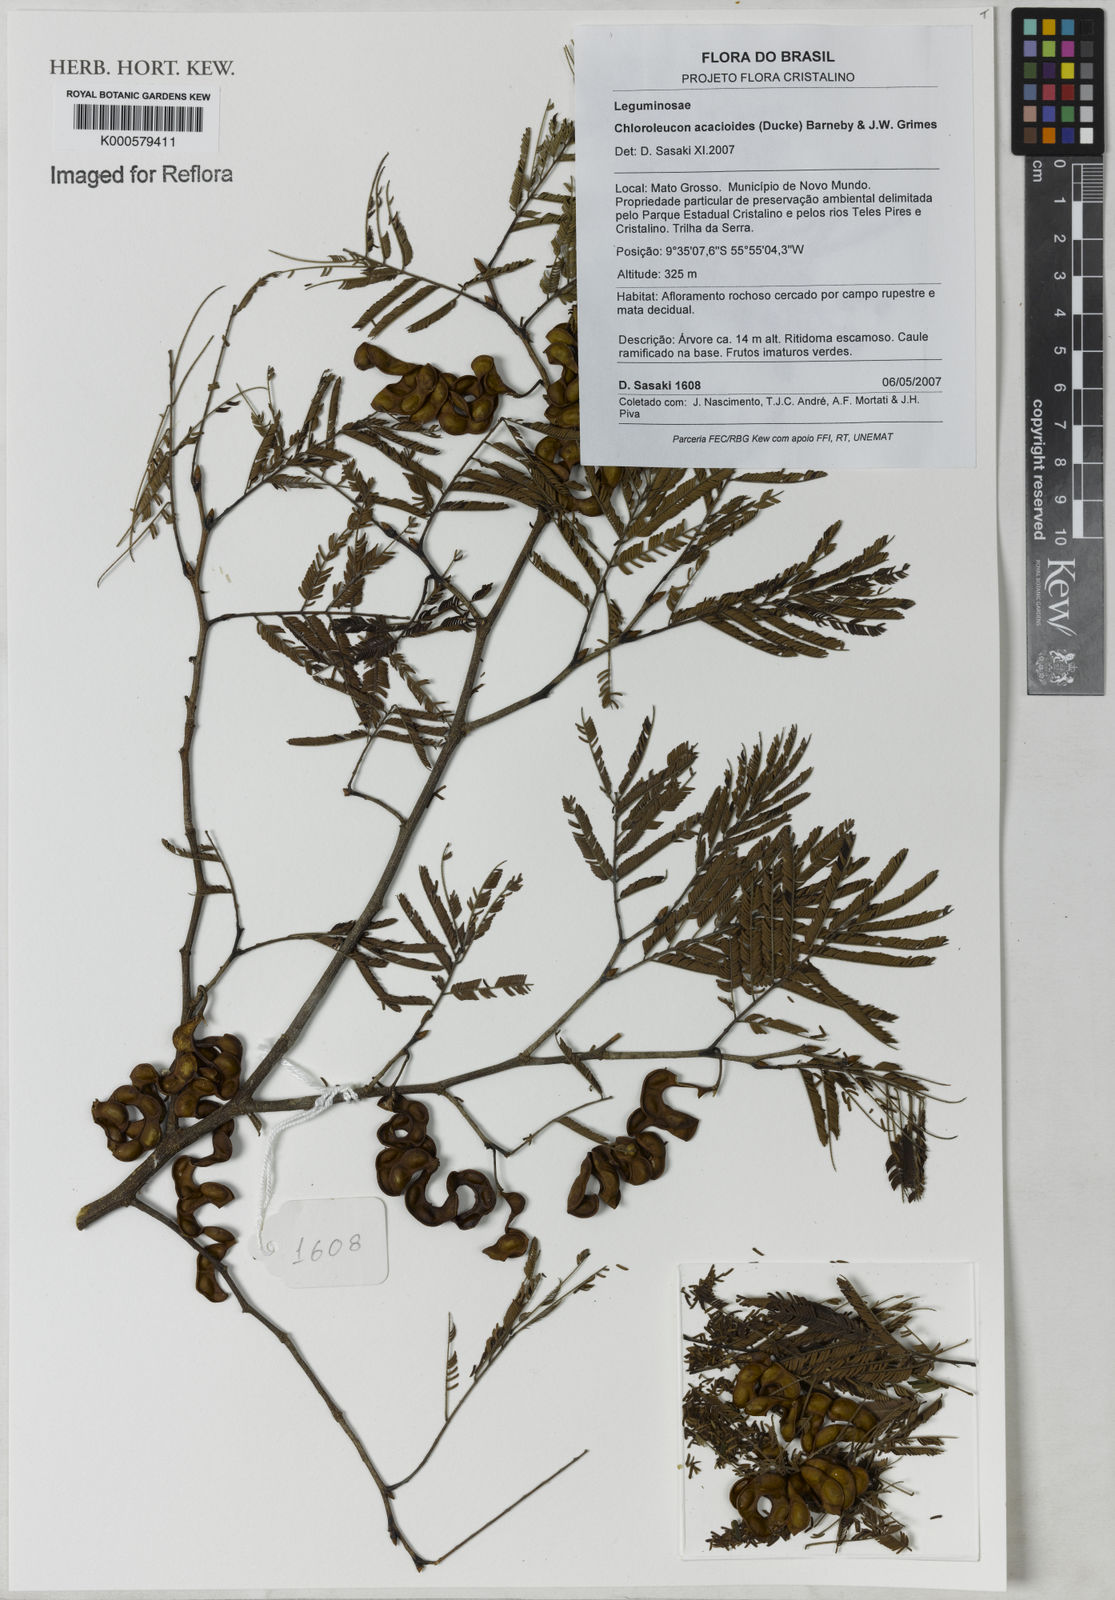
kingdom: Plantae
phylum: Tracheophyta
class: Magnoliopsida
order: Fabales
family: Fabaceae
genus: Chloroleucon
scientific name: Chloroleucon acacioides
